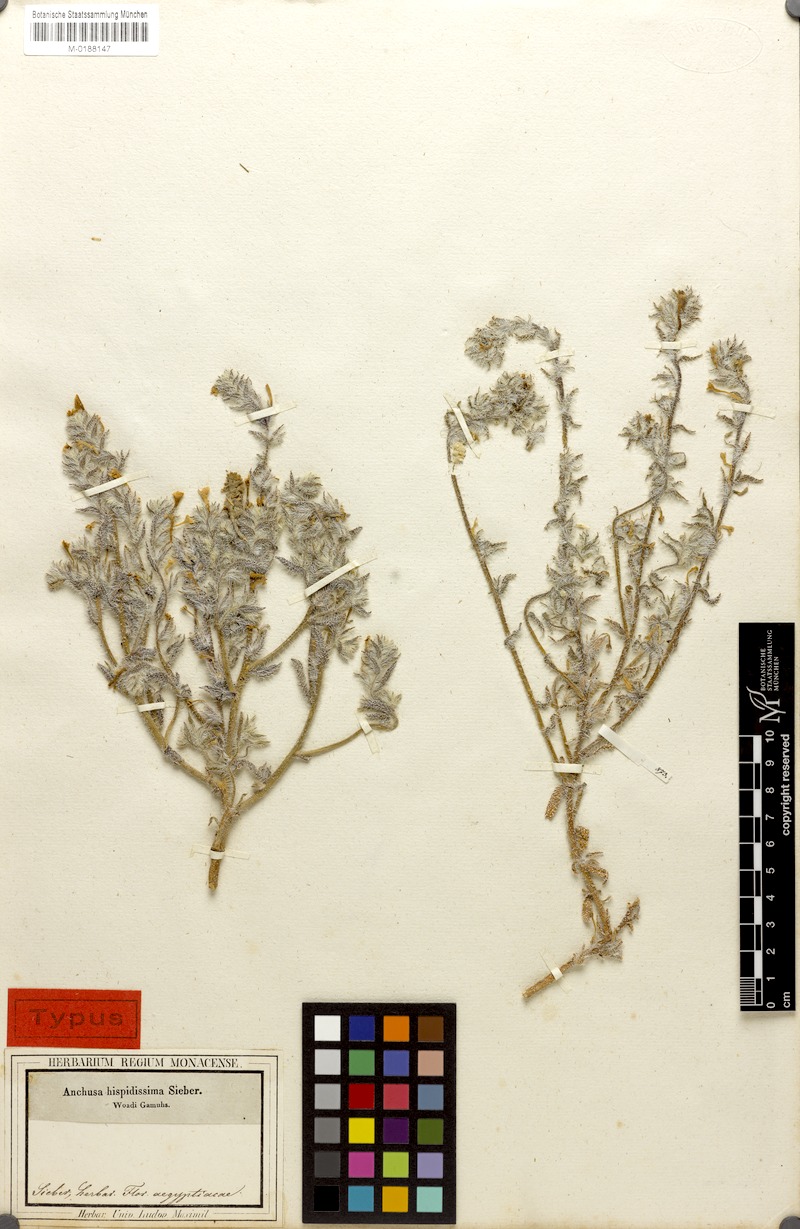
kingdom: Plantae
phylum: Tracheophyta
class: Magnoliopsida
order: Boraginales
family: Boraginaceae
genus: Arnebia
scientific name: Arnebia hispidissima
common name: Arabian-primrose
